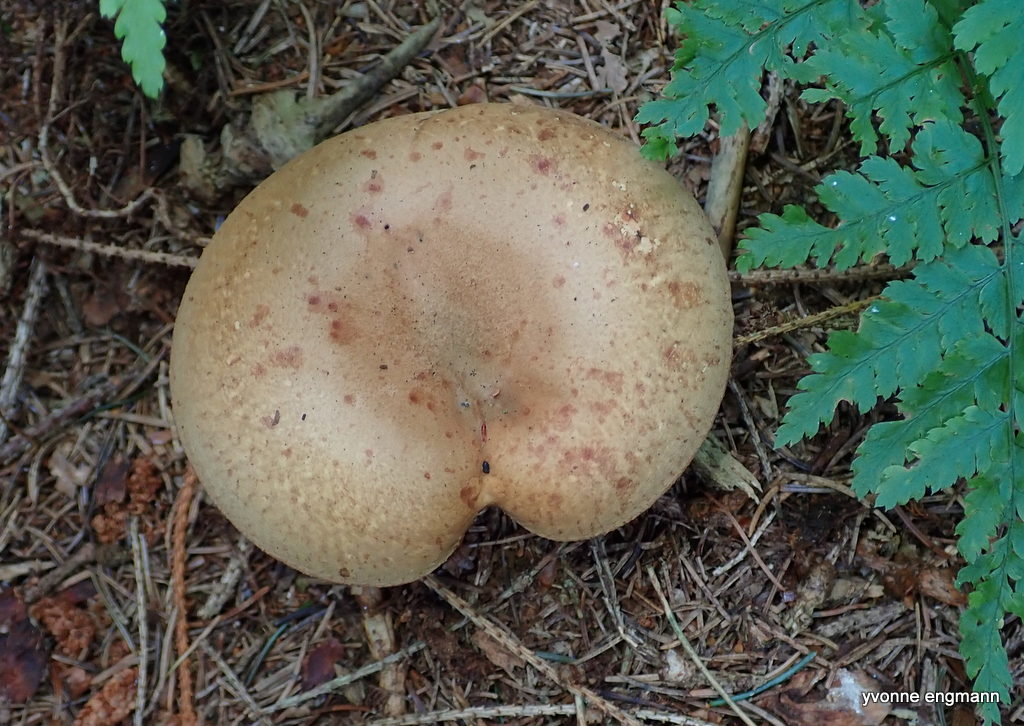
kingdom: Fungi
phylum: Basidiomycota
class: Agaricomycetes
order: Boletales
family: Paxillaceae
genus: Paxillus
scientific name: Paxillus involutus
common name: almindelig netbladhat
